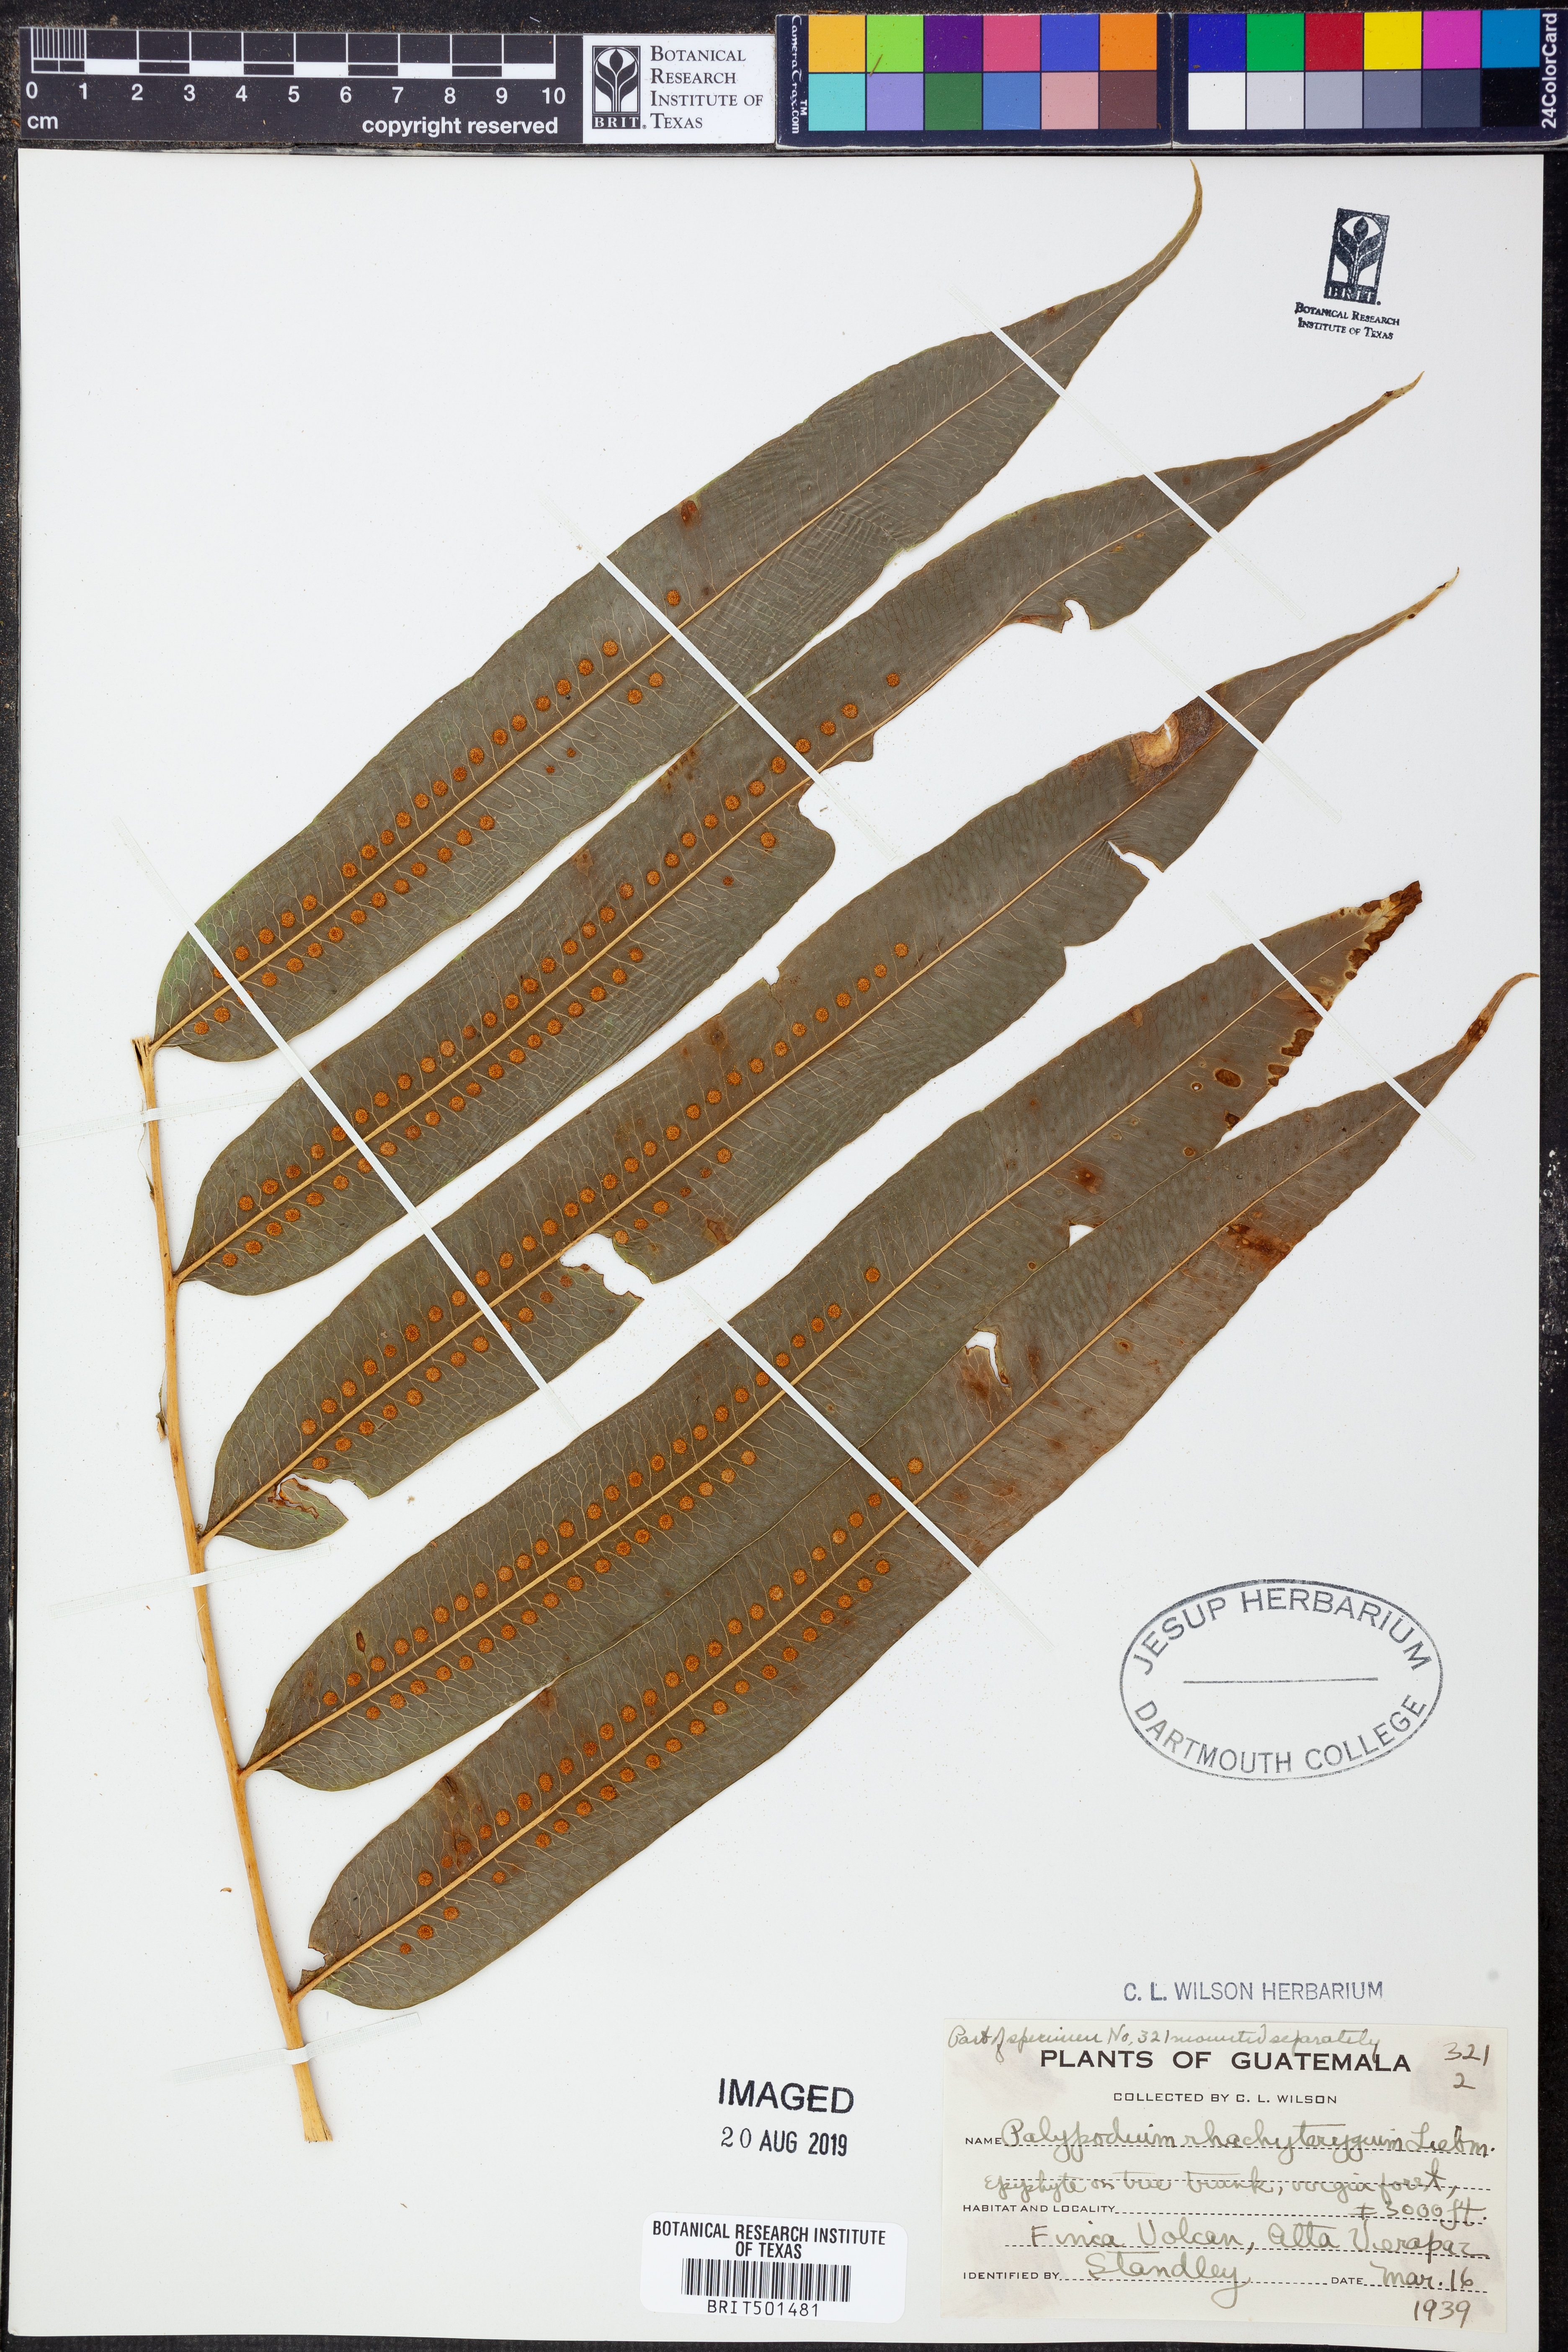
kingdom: Plantae
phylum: Tracheophyta
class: Polypodiopsida
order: Polypodiales
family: Polypodiaceae
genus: Pecluma
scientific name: Pecluma rhachipterygia
